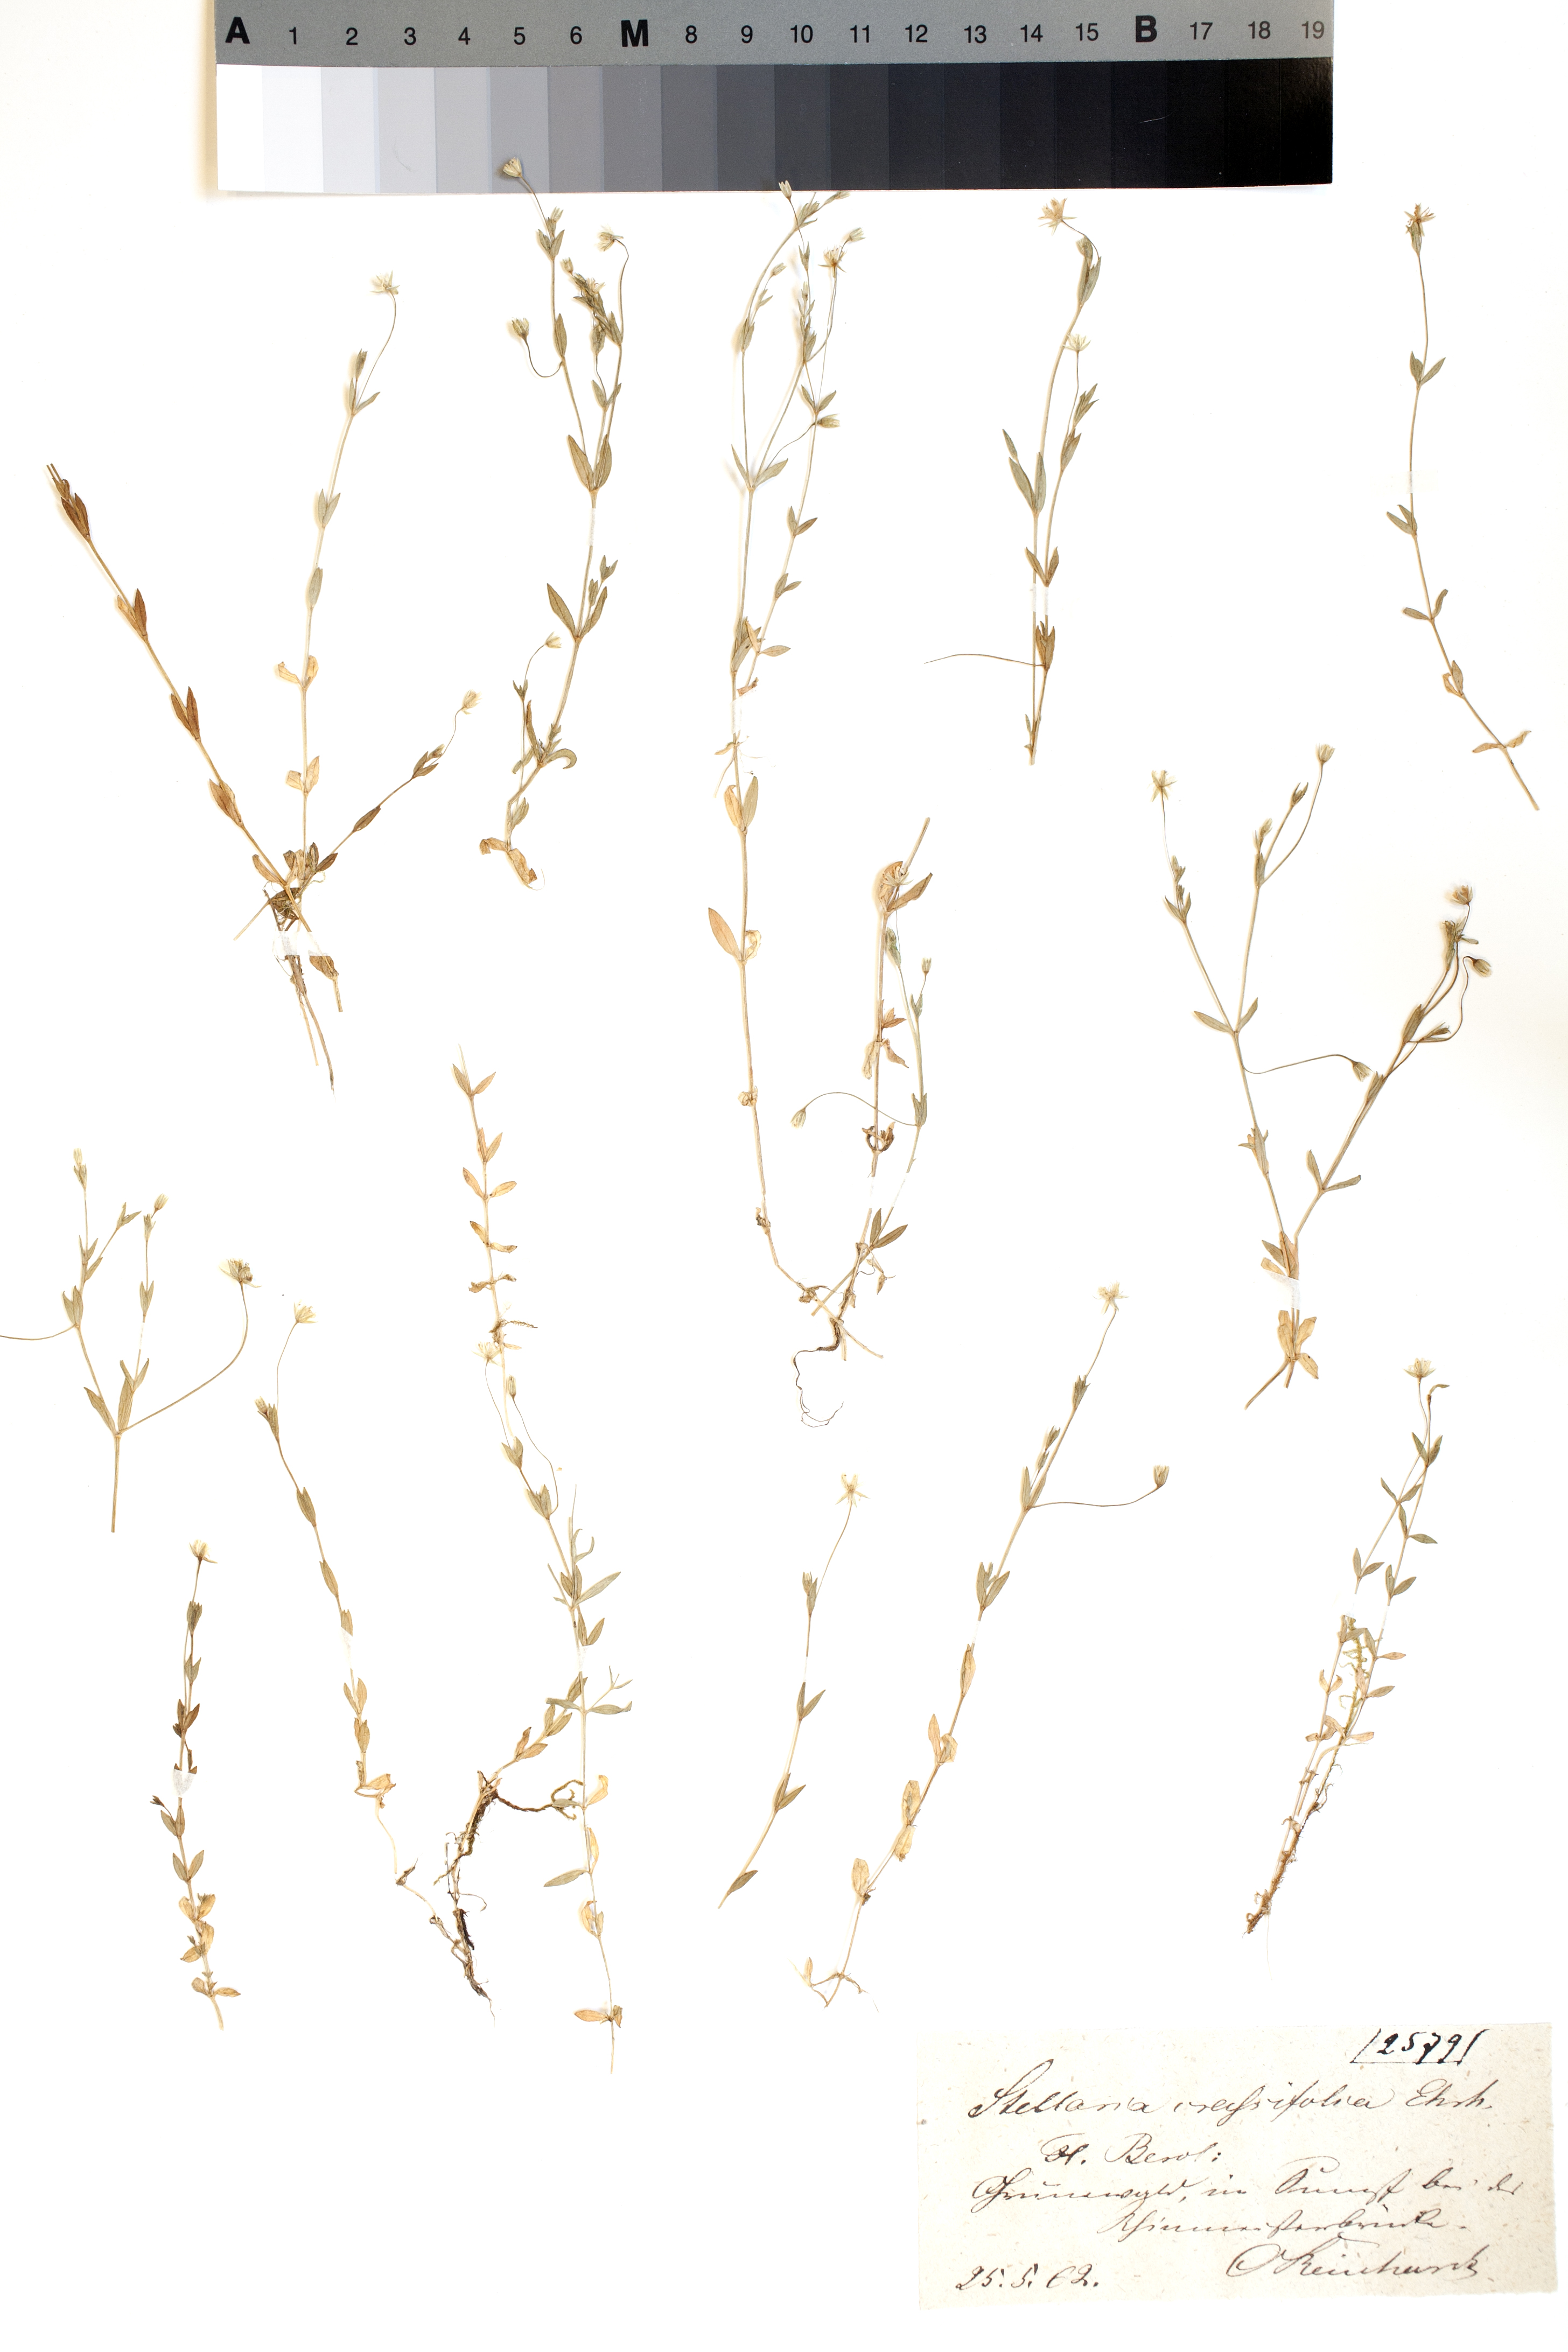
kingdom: Plantae
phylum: Tracheophyta
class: Magnoliopsida
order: Caryophyllales
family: Caryophyllaceae
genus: Stellaria
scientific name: Stellaria crassifolia
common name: Fleshy starwort
